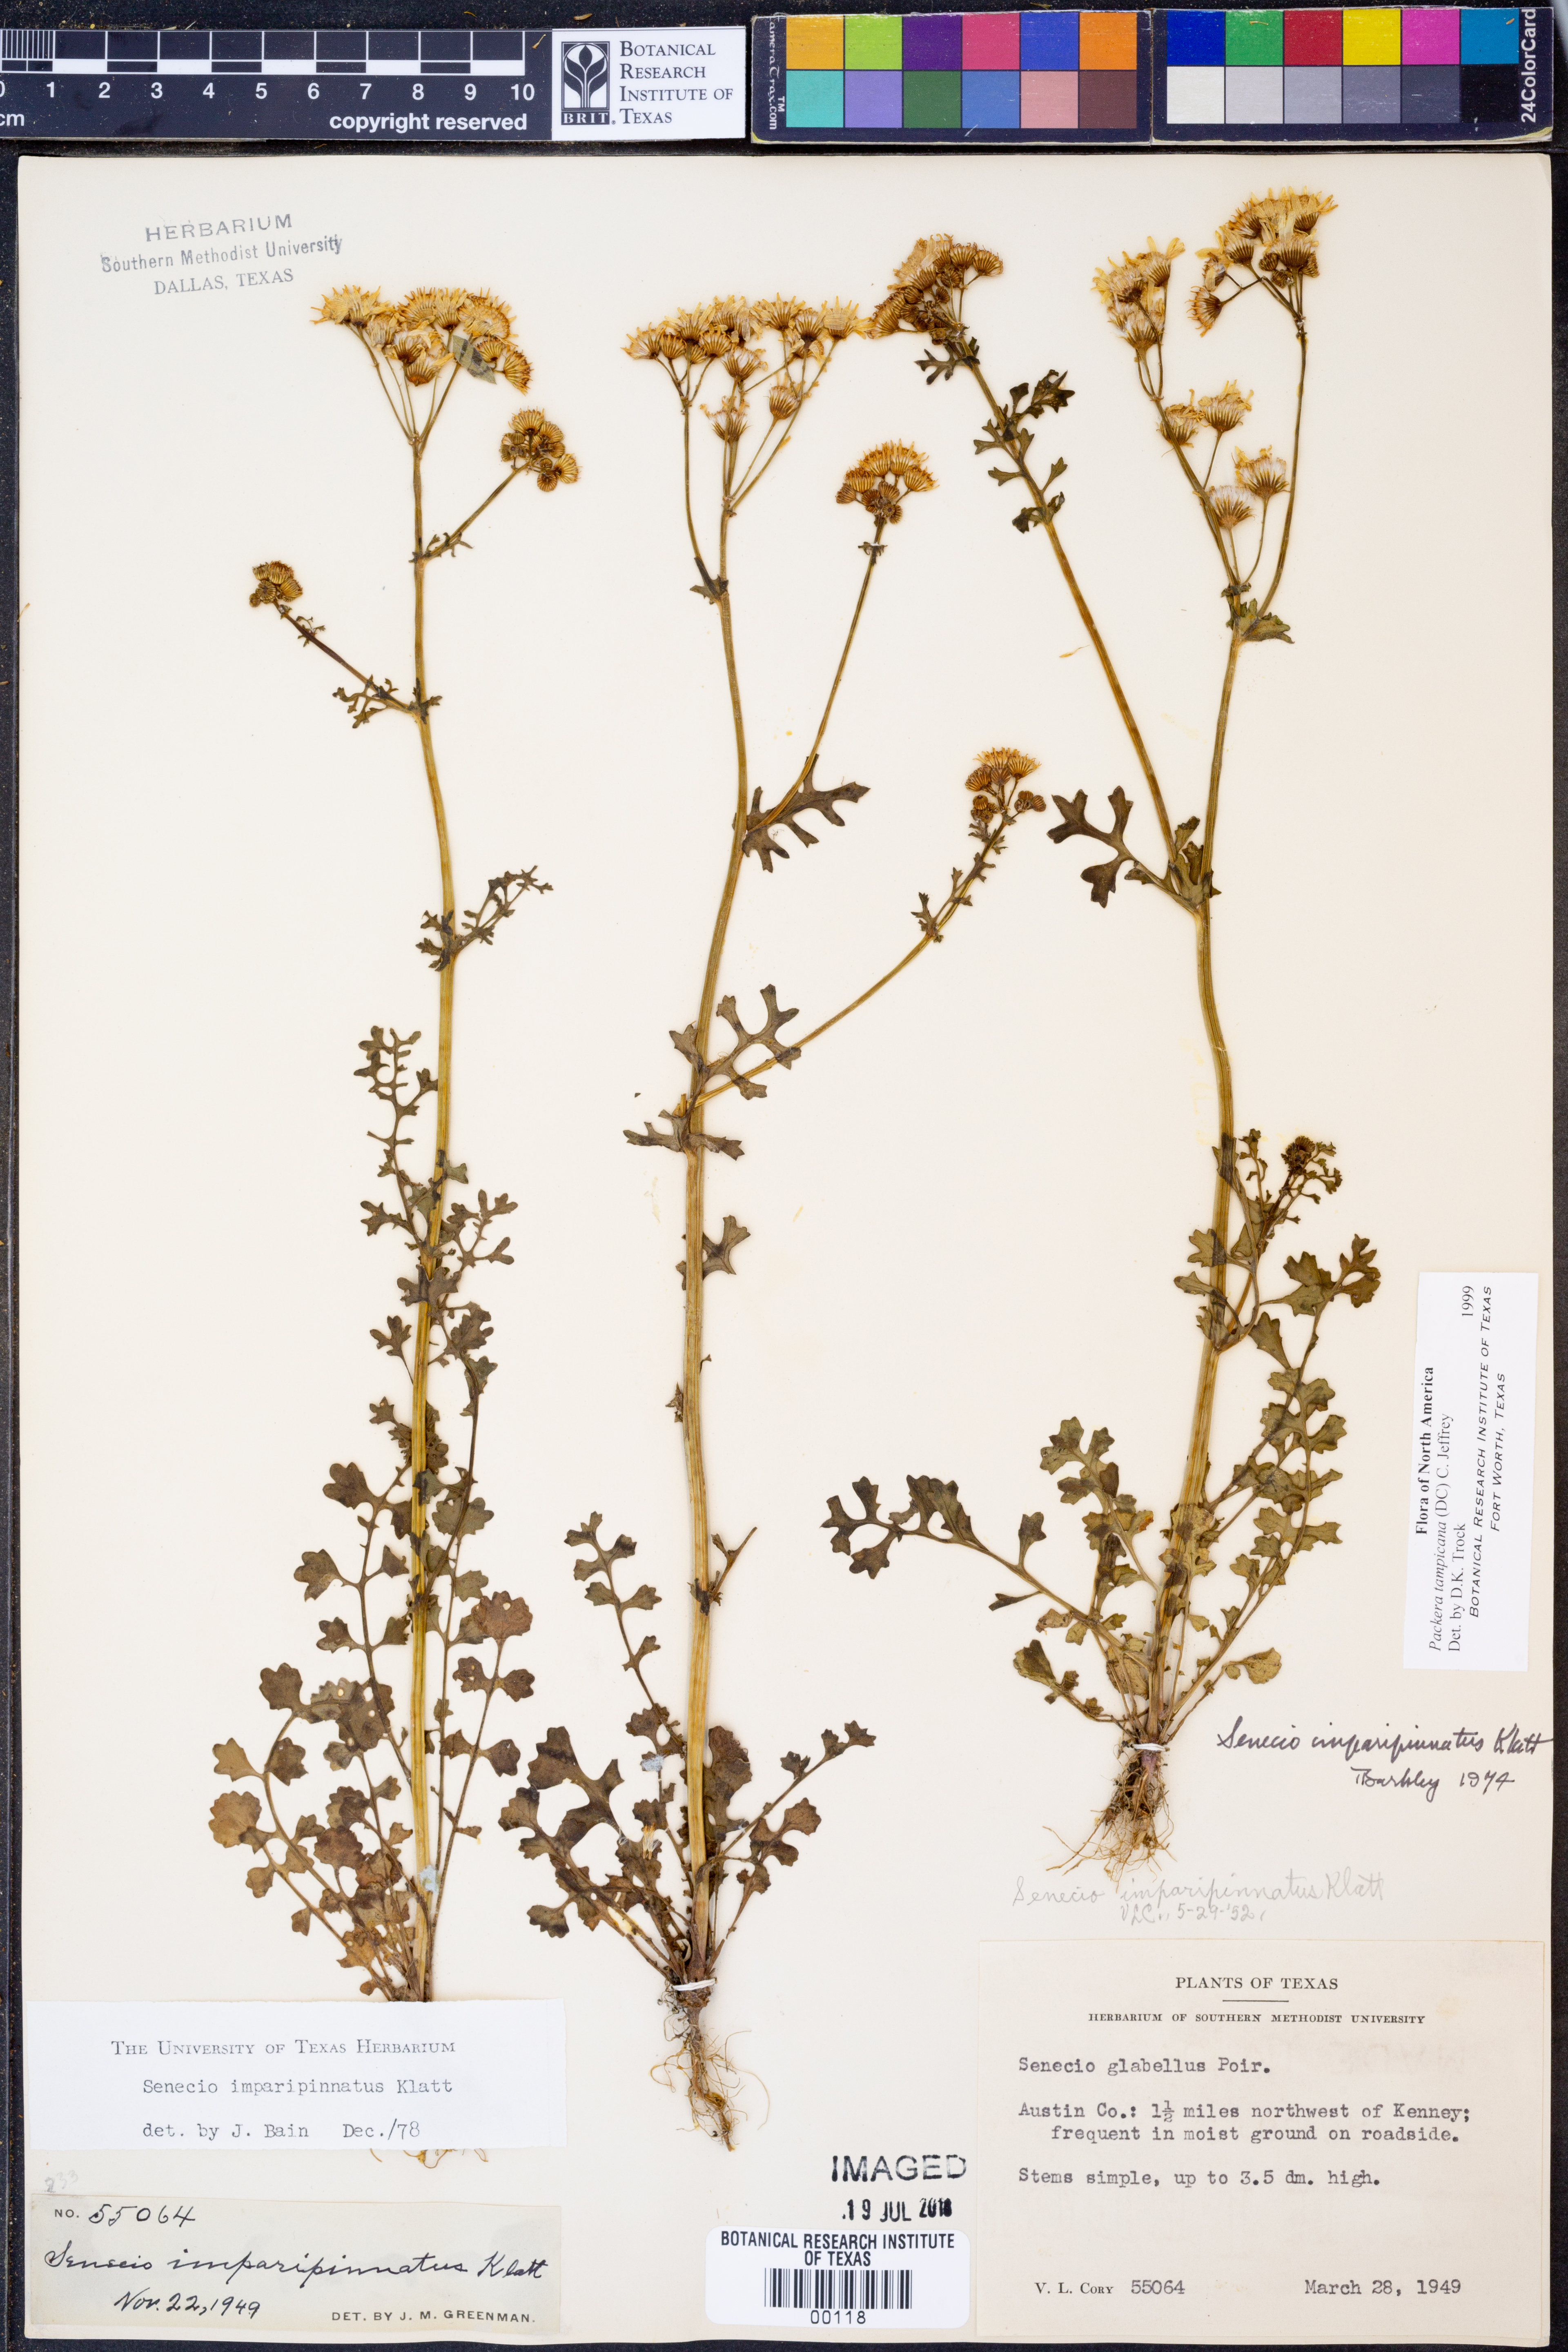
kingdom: Plantae
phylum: Tracheophyta
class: Magnoliopsida
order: Asterales
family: Asteraceae
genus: Packera
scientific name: Packera tampicana
